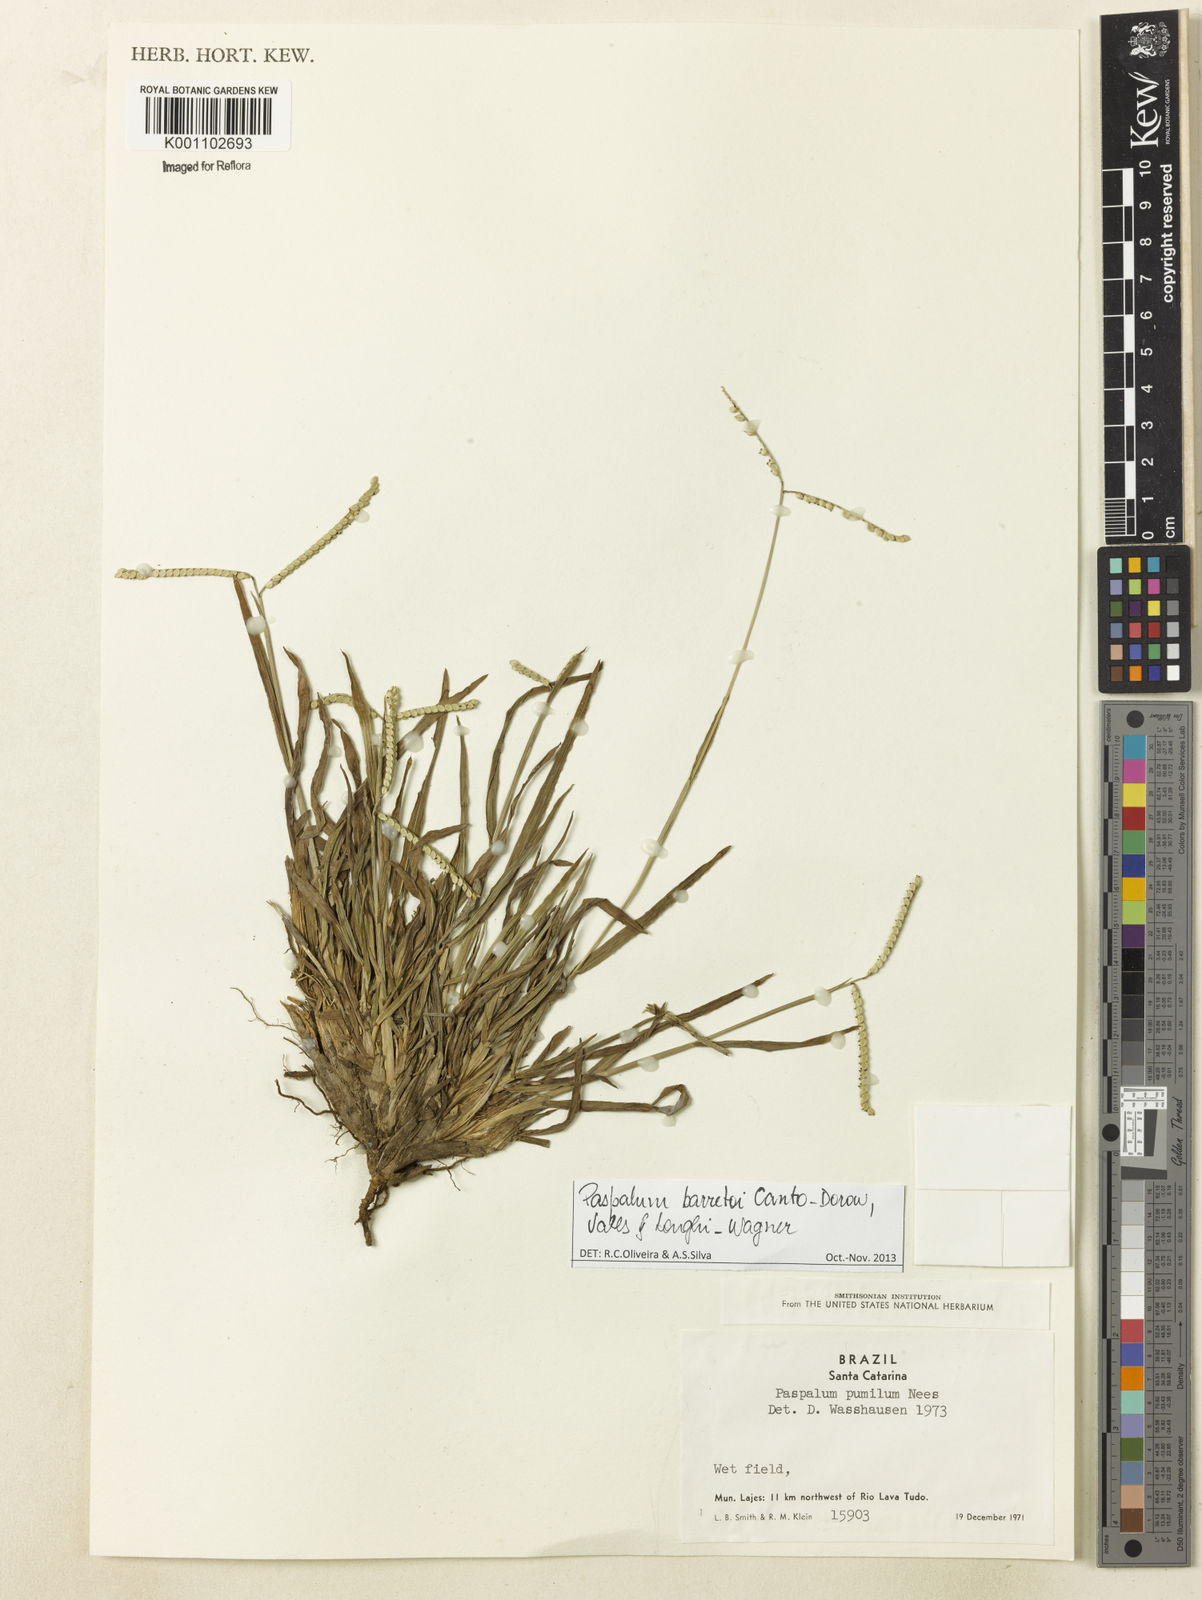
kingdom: Plantae
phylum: Tracheophyta
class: Liliopsida
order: Poales
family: Poaceae
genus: Paspalum
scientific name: Paspalum minus
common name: Matted paspalum
